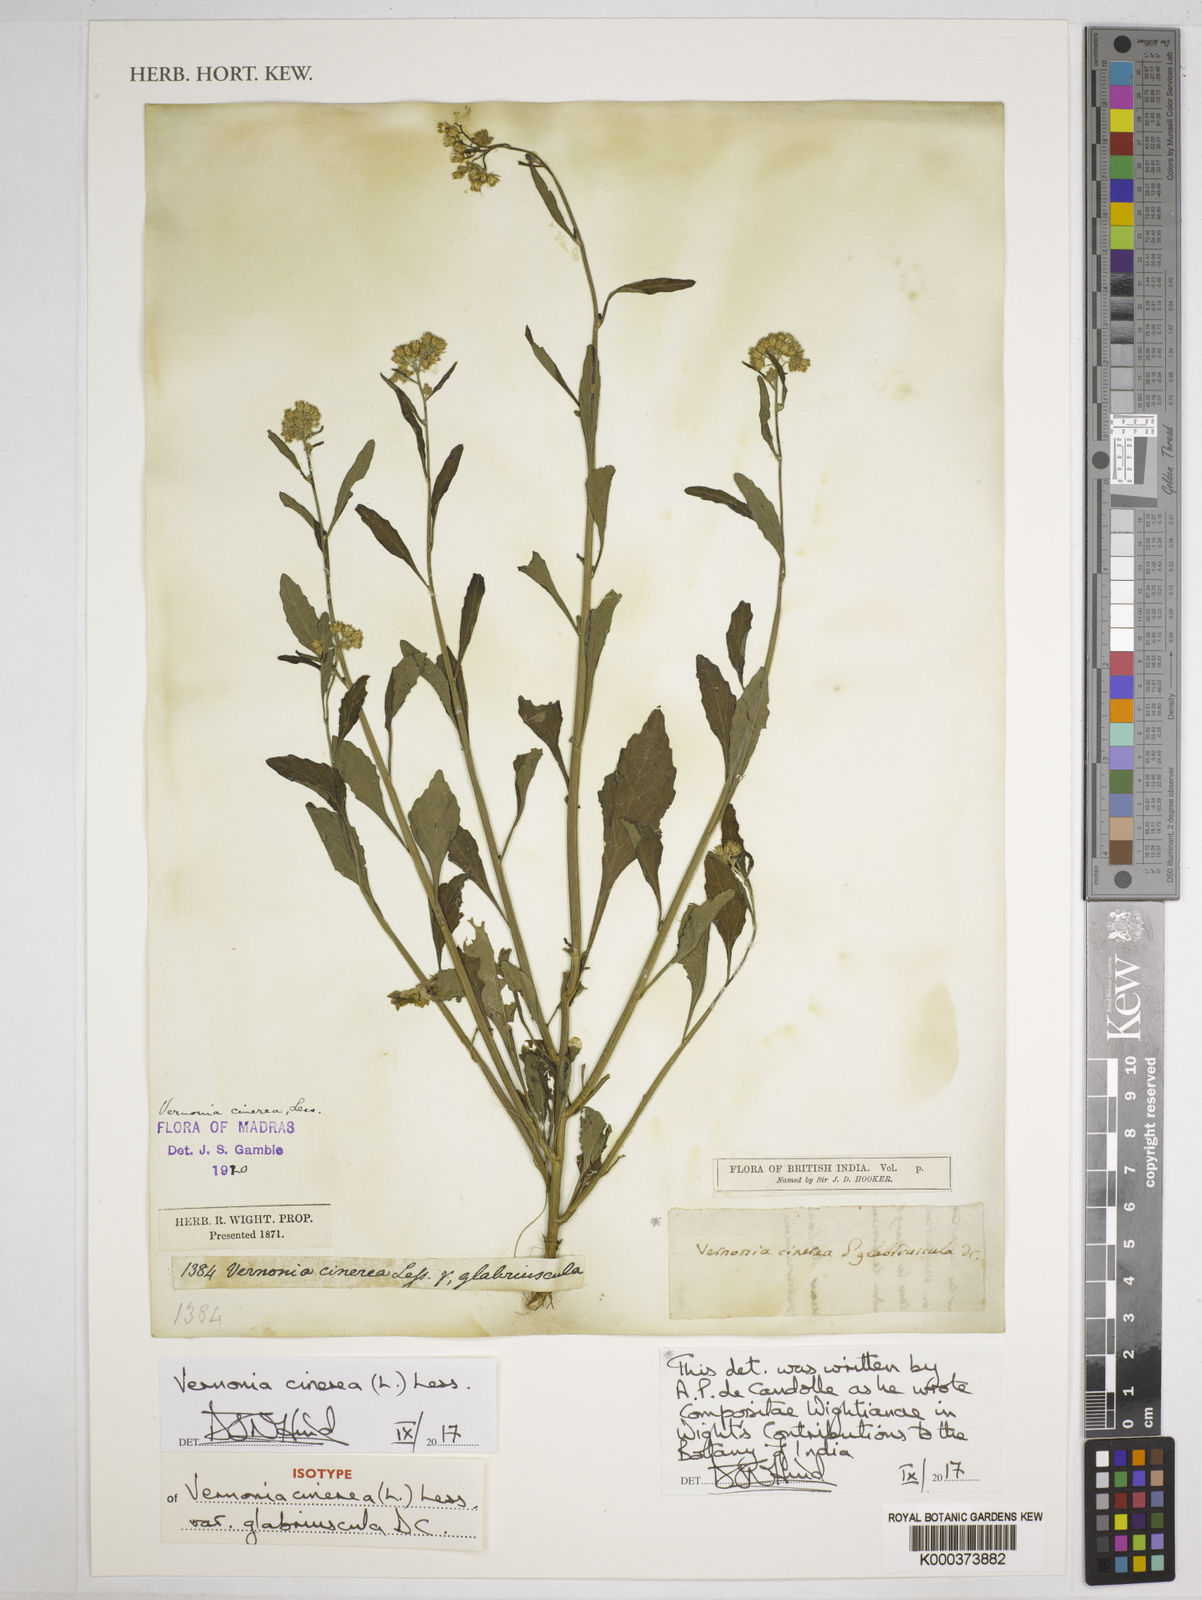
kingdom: Plantae
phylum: Tracheophyta
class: Magnoliopsida
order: Asterales
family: Asteraceae
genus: Cyanthillium
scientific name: Cyanthillium cinereum
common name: Little ironweed
